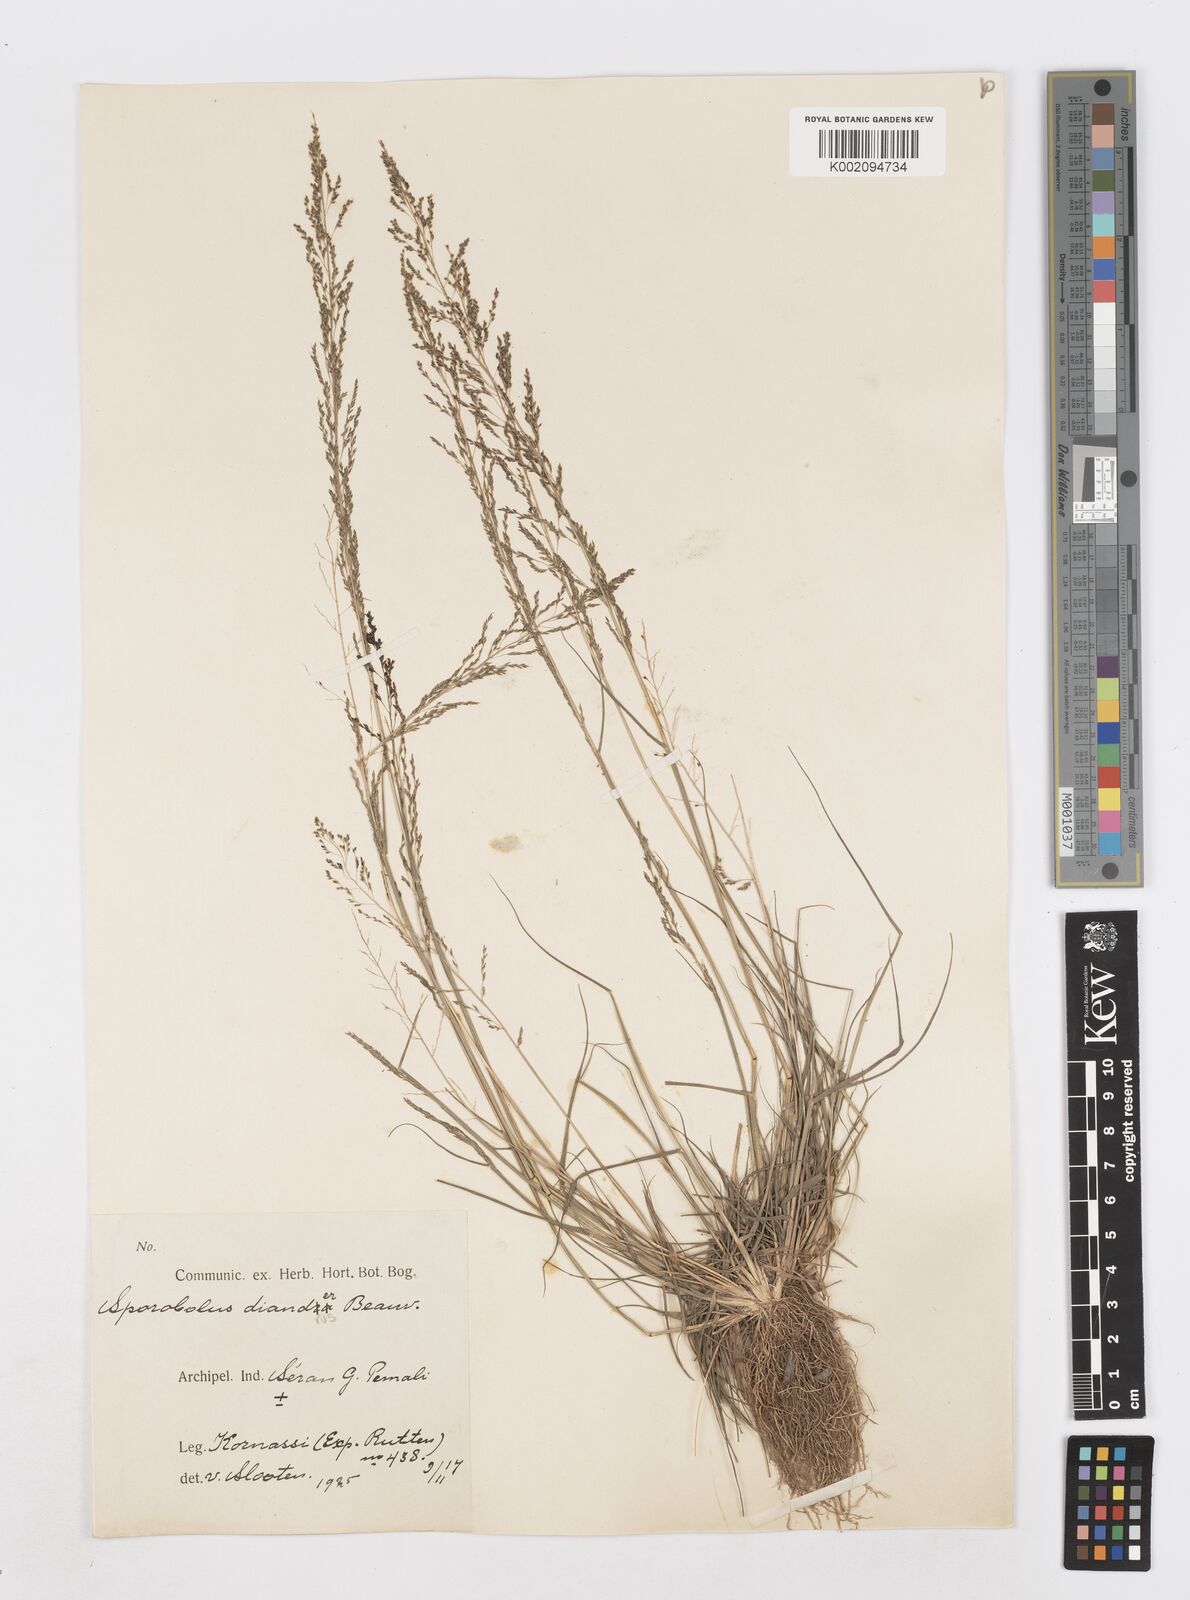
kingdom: Plantae
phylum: Tracheophyta
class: Liliopsida
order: Poales
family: Poaceae
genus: Sporobolus
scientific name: Sporobolus diandrus
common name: Tussock dropseed
